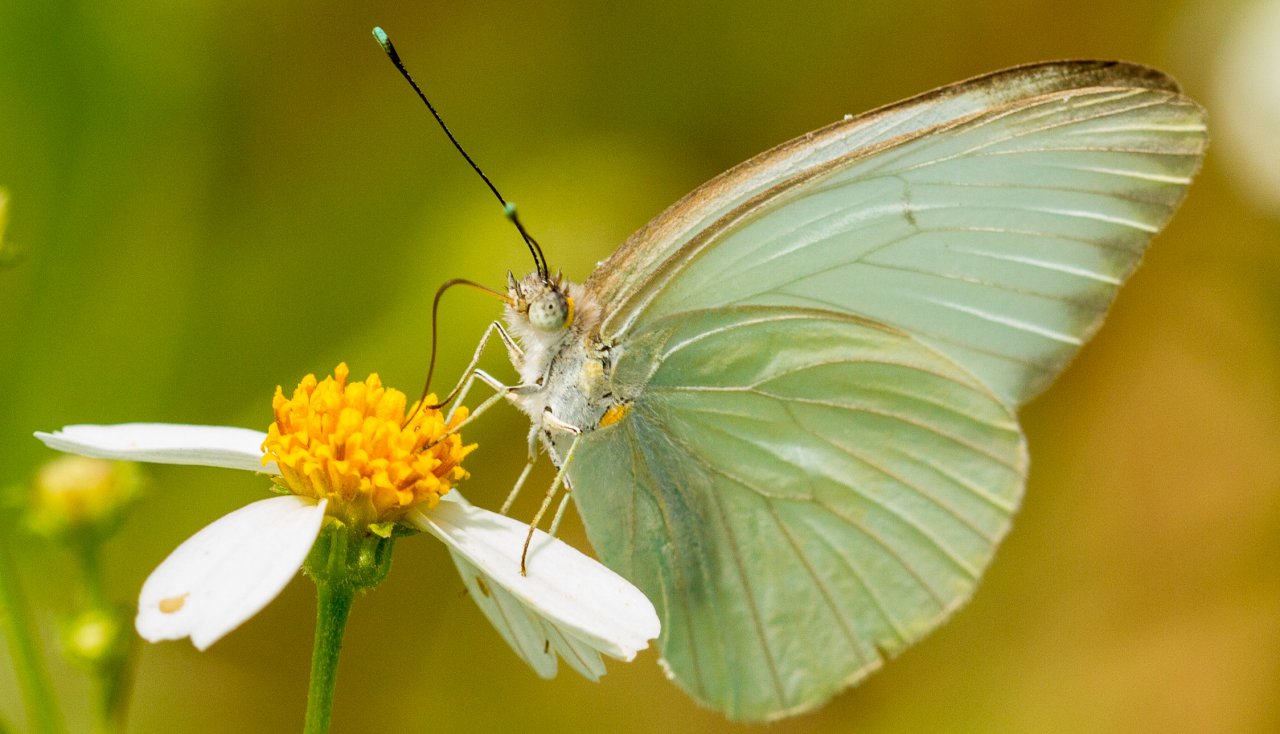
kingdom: Animalia
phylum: Arthropoda
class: Insecta
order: Lepidoptera
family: Pieridae
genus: Ascia
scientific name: Ascia monuste
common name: Great Southern White
